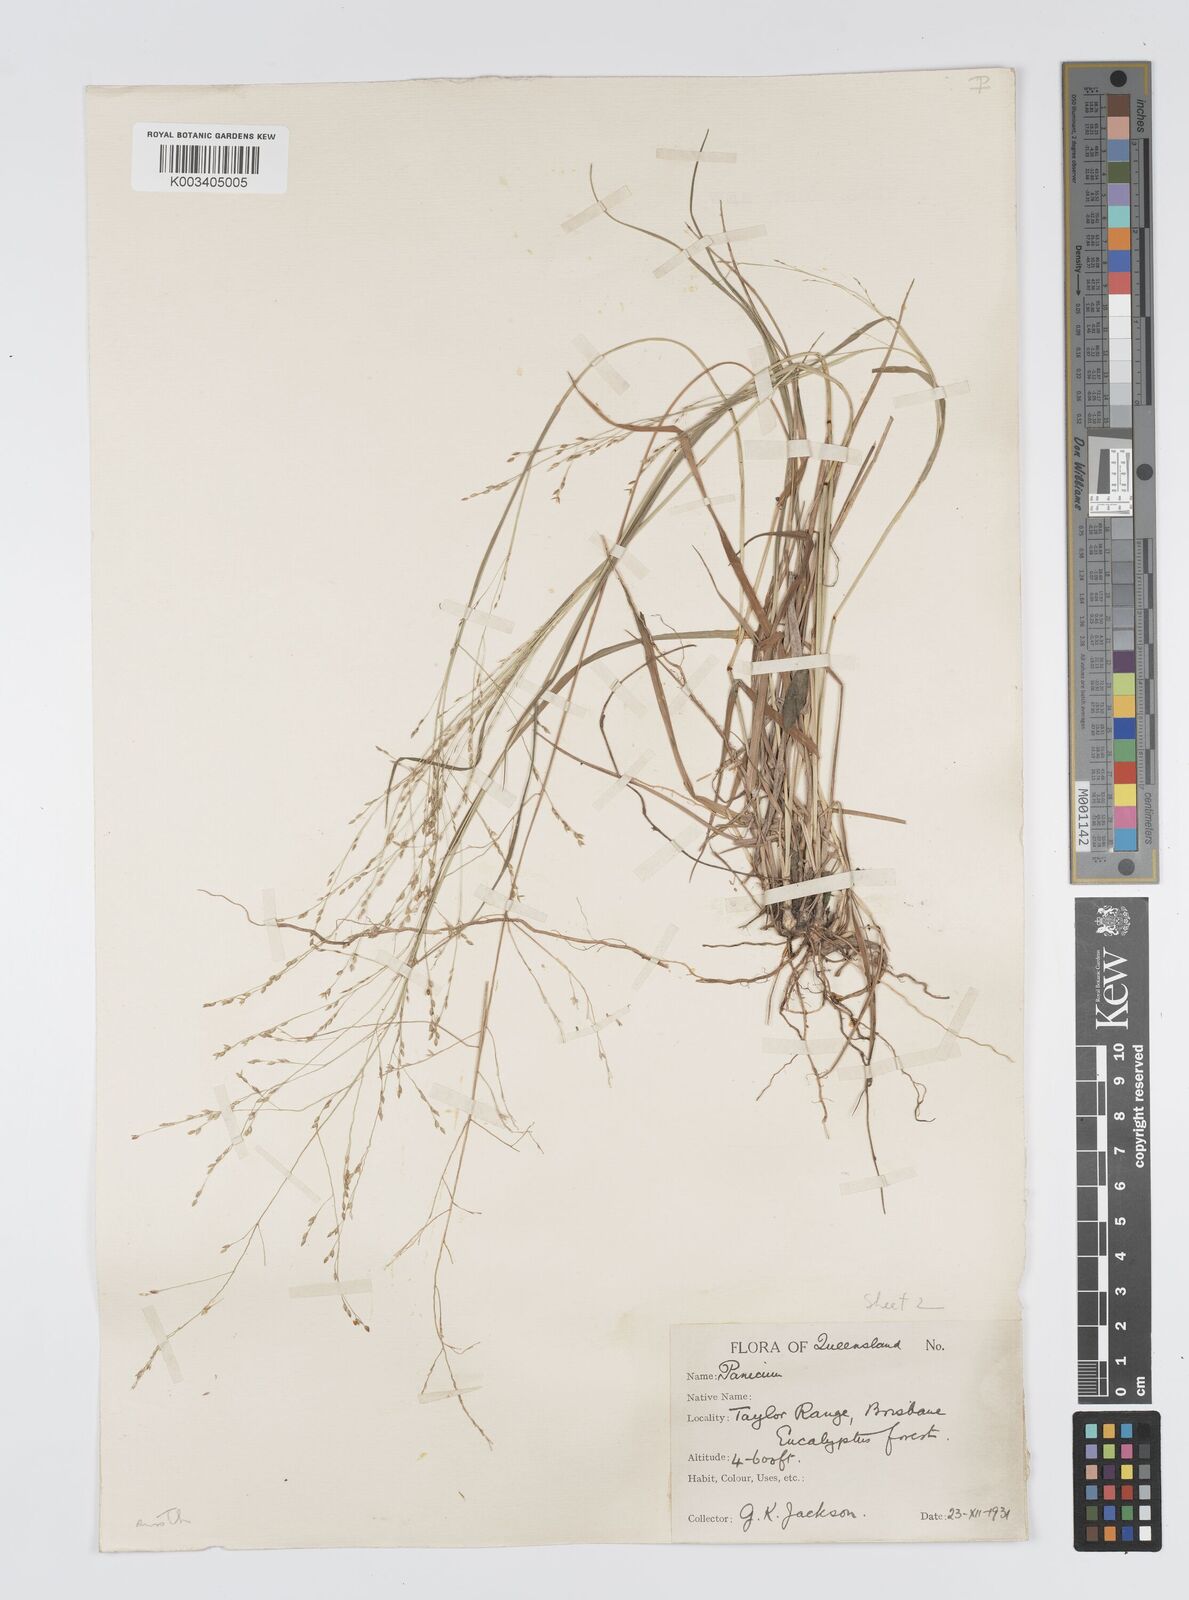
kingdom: Plantae
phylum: Tracheophyta
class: Liliopsida
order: Poales
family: Poaceae
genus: Panicum
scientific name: Panicum effusum
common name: Hairy panic grass
